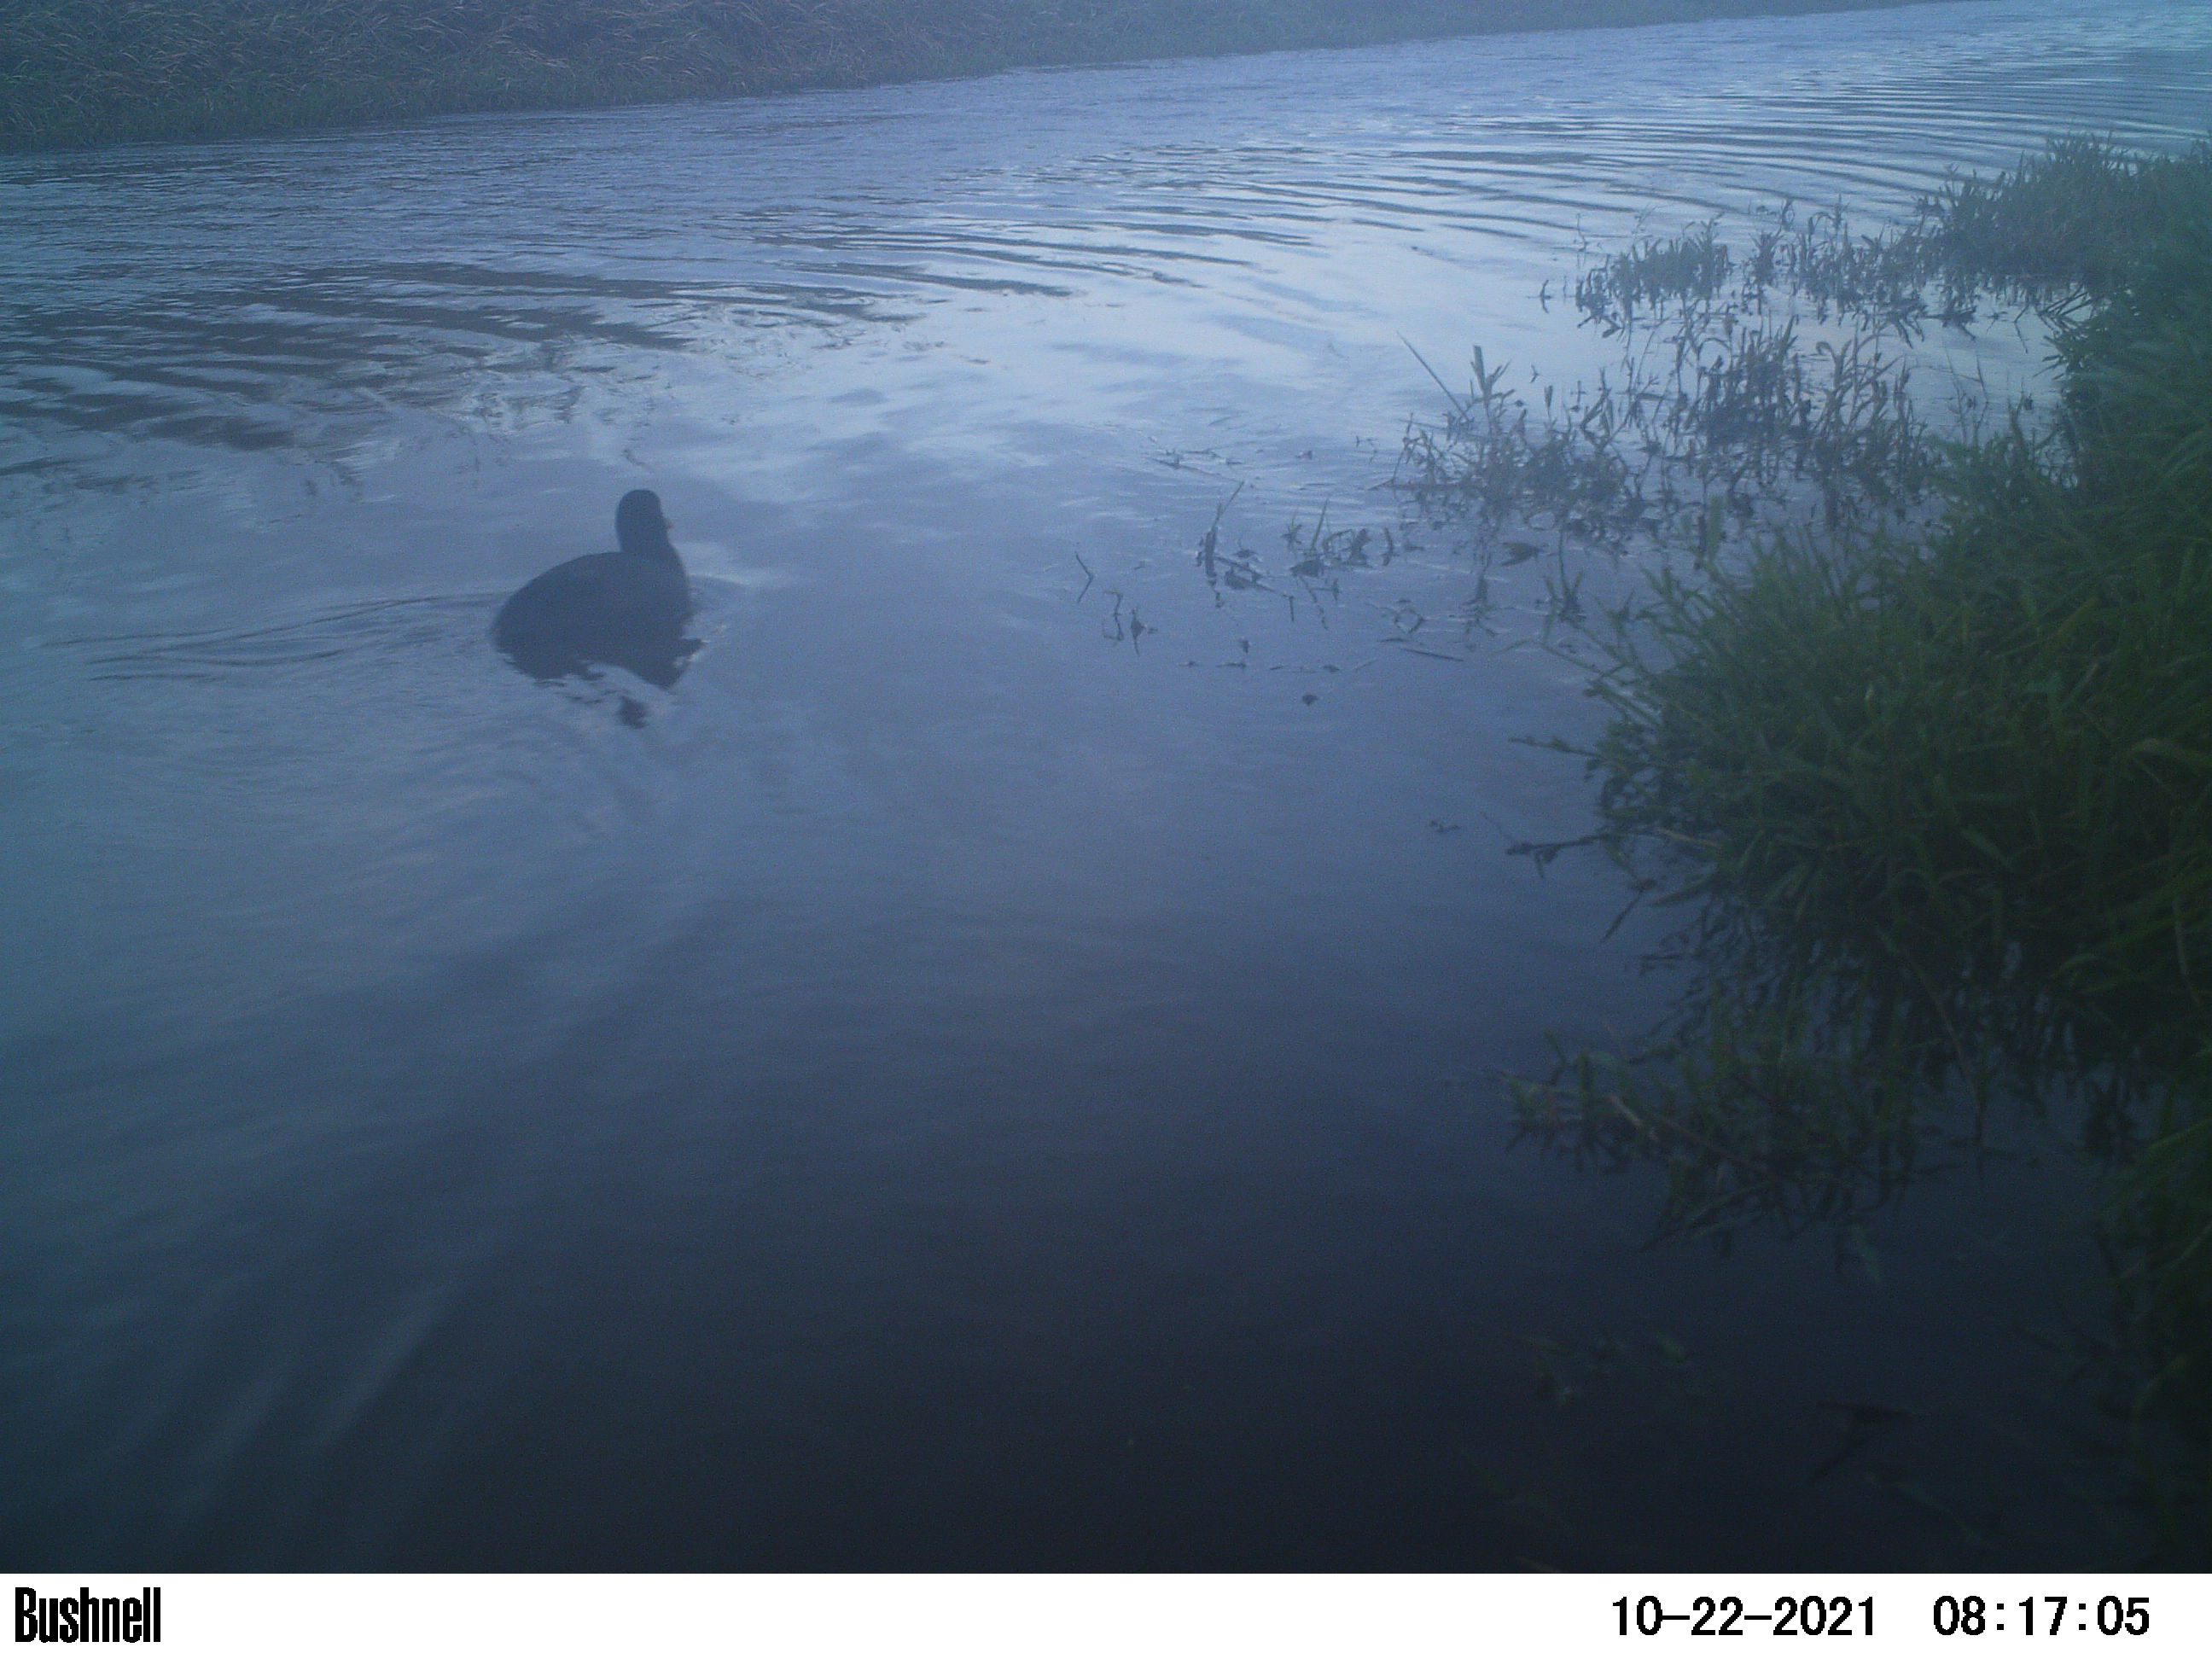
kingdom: Animalia
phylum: Chordata
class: Aves
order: Gruiformes
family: Rallidae
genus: Fulica
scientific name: Fulica atra
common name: Eurasian coot
